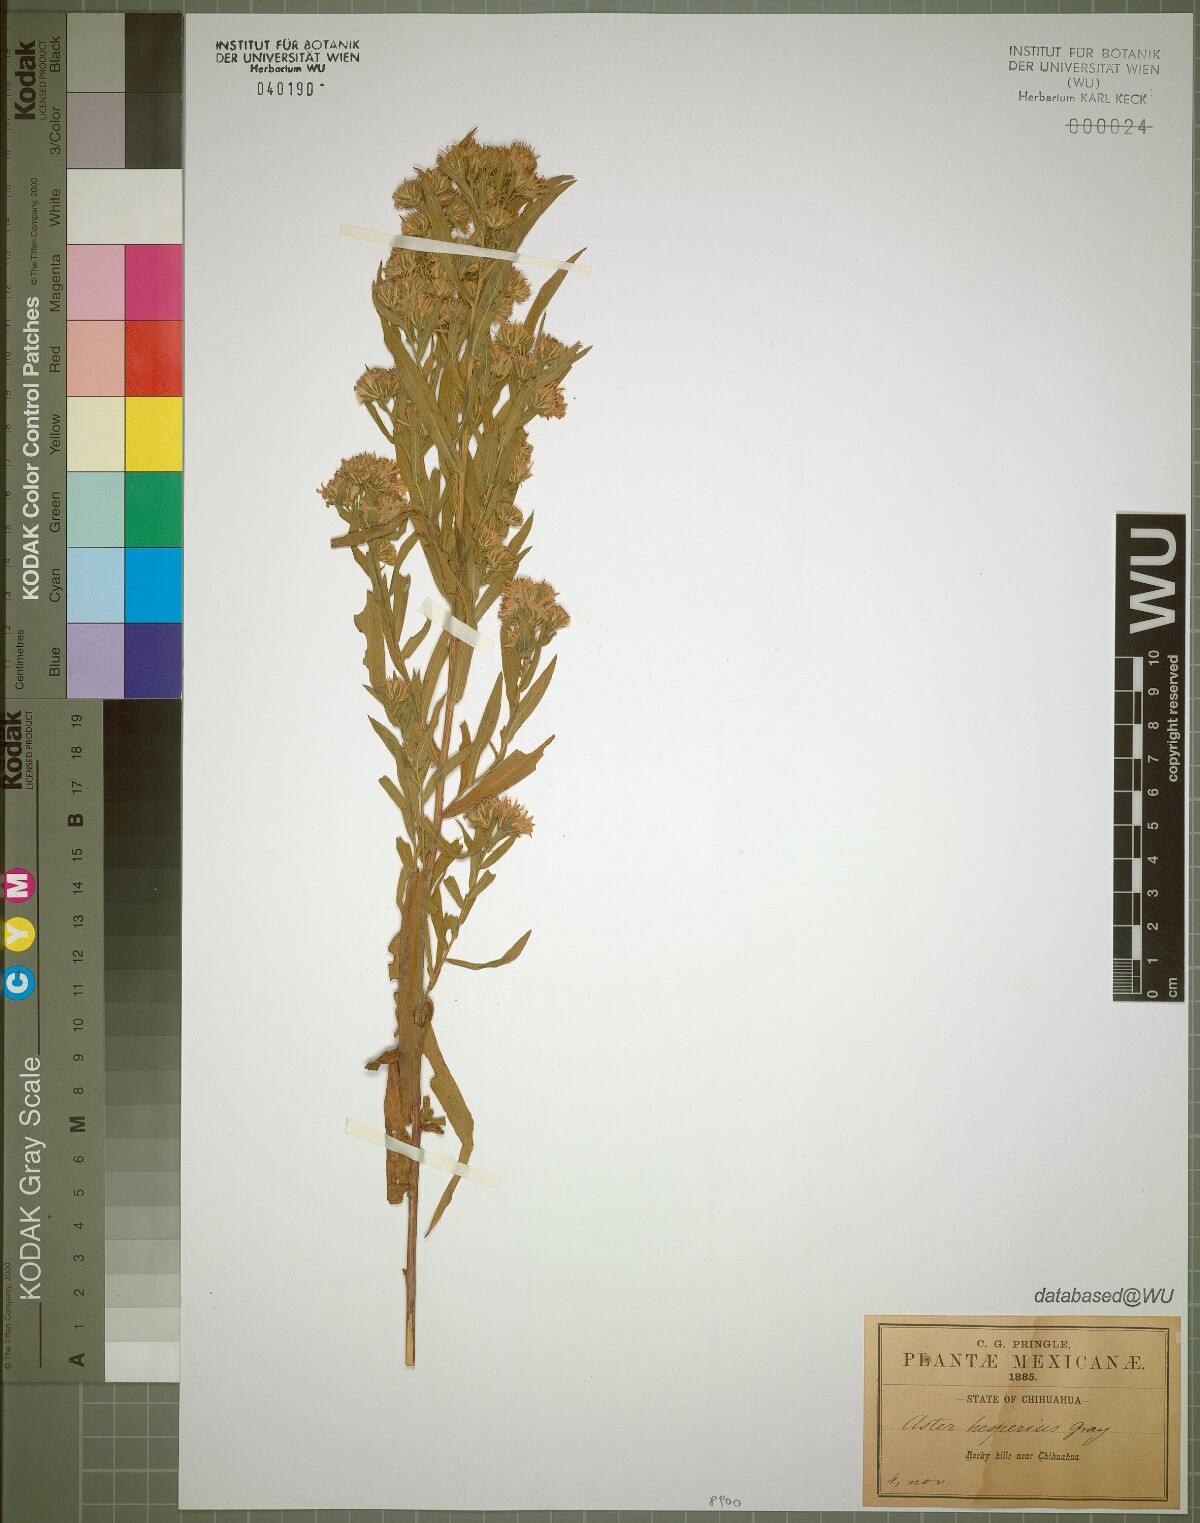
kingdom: Plantae
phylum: Tracheophyta
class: Magnoliopsida
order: Asterales
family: Asteraceae
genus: Symphyotrichum
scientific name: Symphyotrichum lanceolatum
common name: Panicled aster
